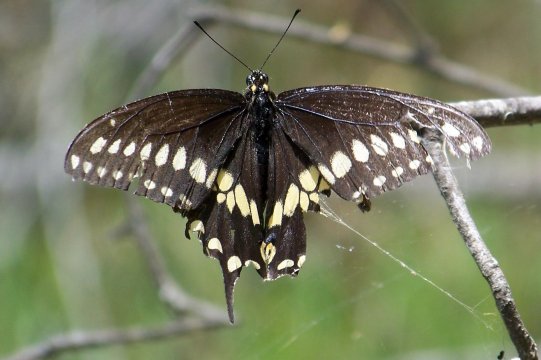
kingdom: Animalia
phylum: Arthropoda
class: Insecta
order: Lepidoptera
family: Papilionidae
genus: Papilio
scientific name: Papilio polyxenes
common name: Black Swallowtail
